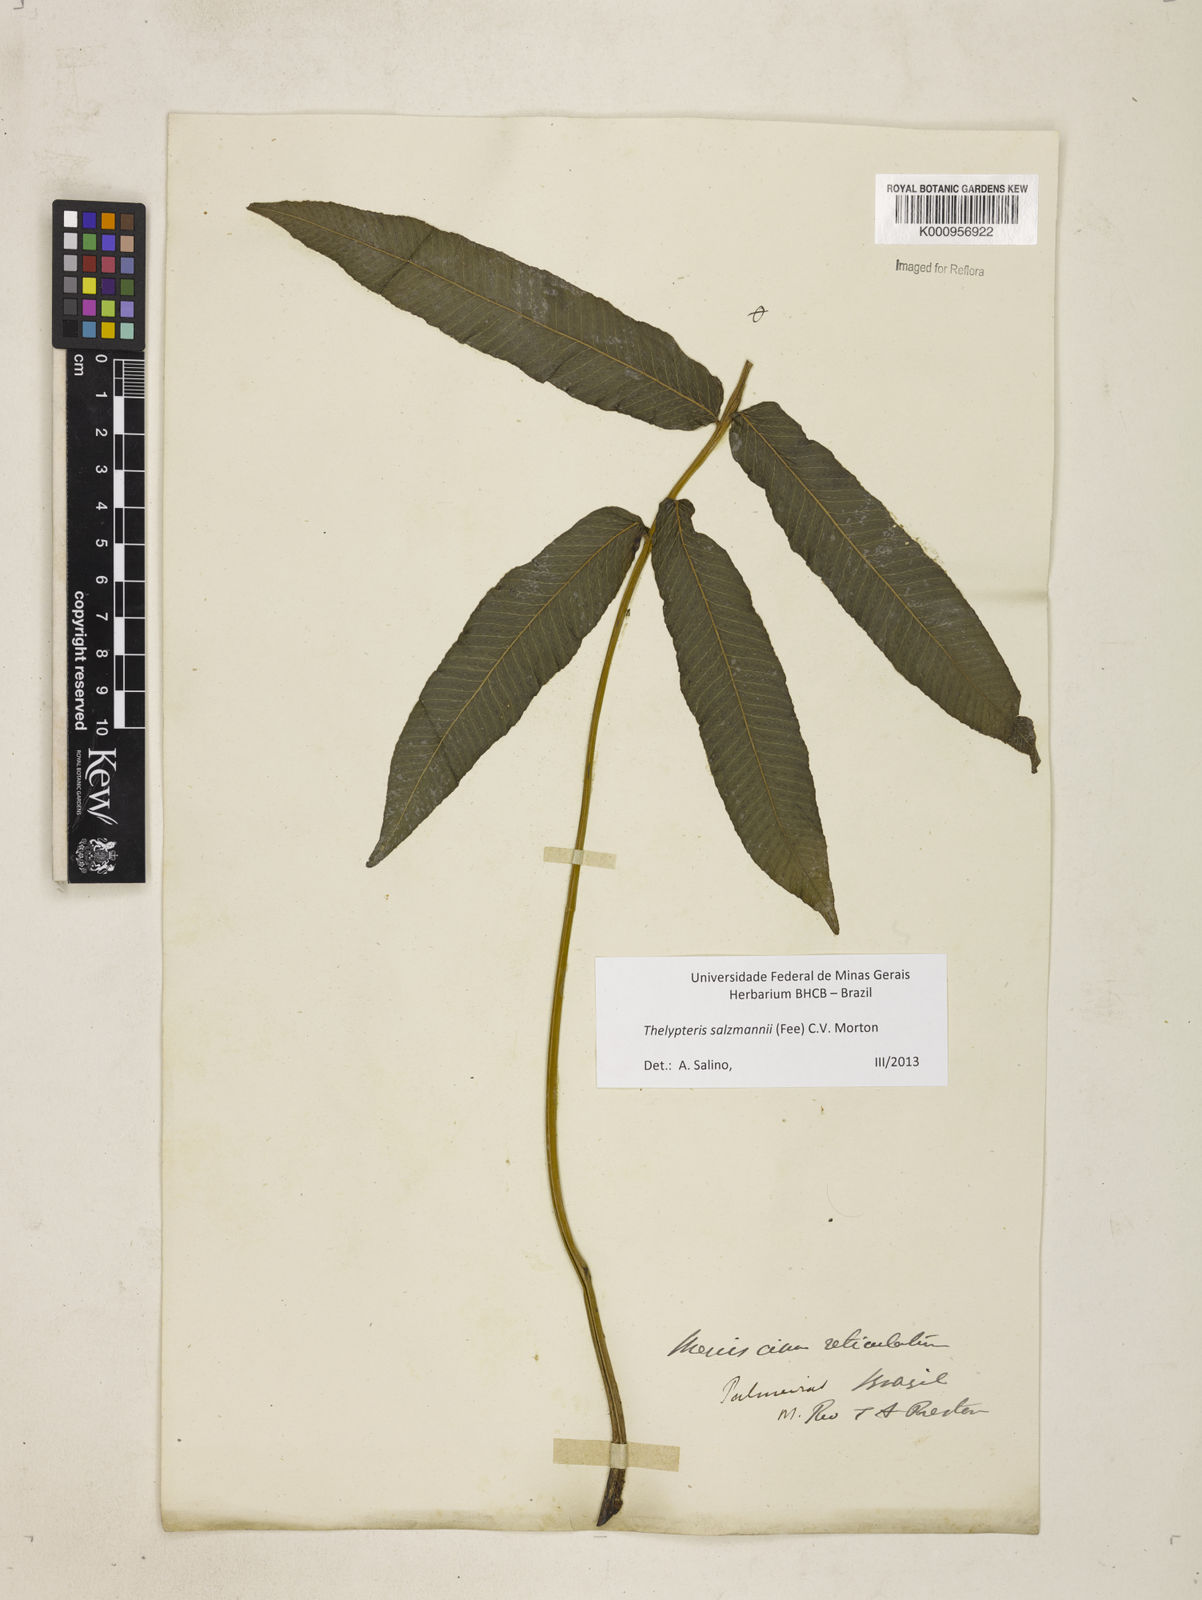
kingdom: Plantae
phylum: Tracheophyta
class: Polypodiopsida
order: Polypodiales
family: Thelypteridaceae
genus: Meniscium
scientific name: Meniscium arborescens
